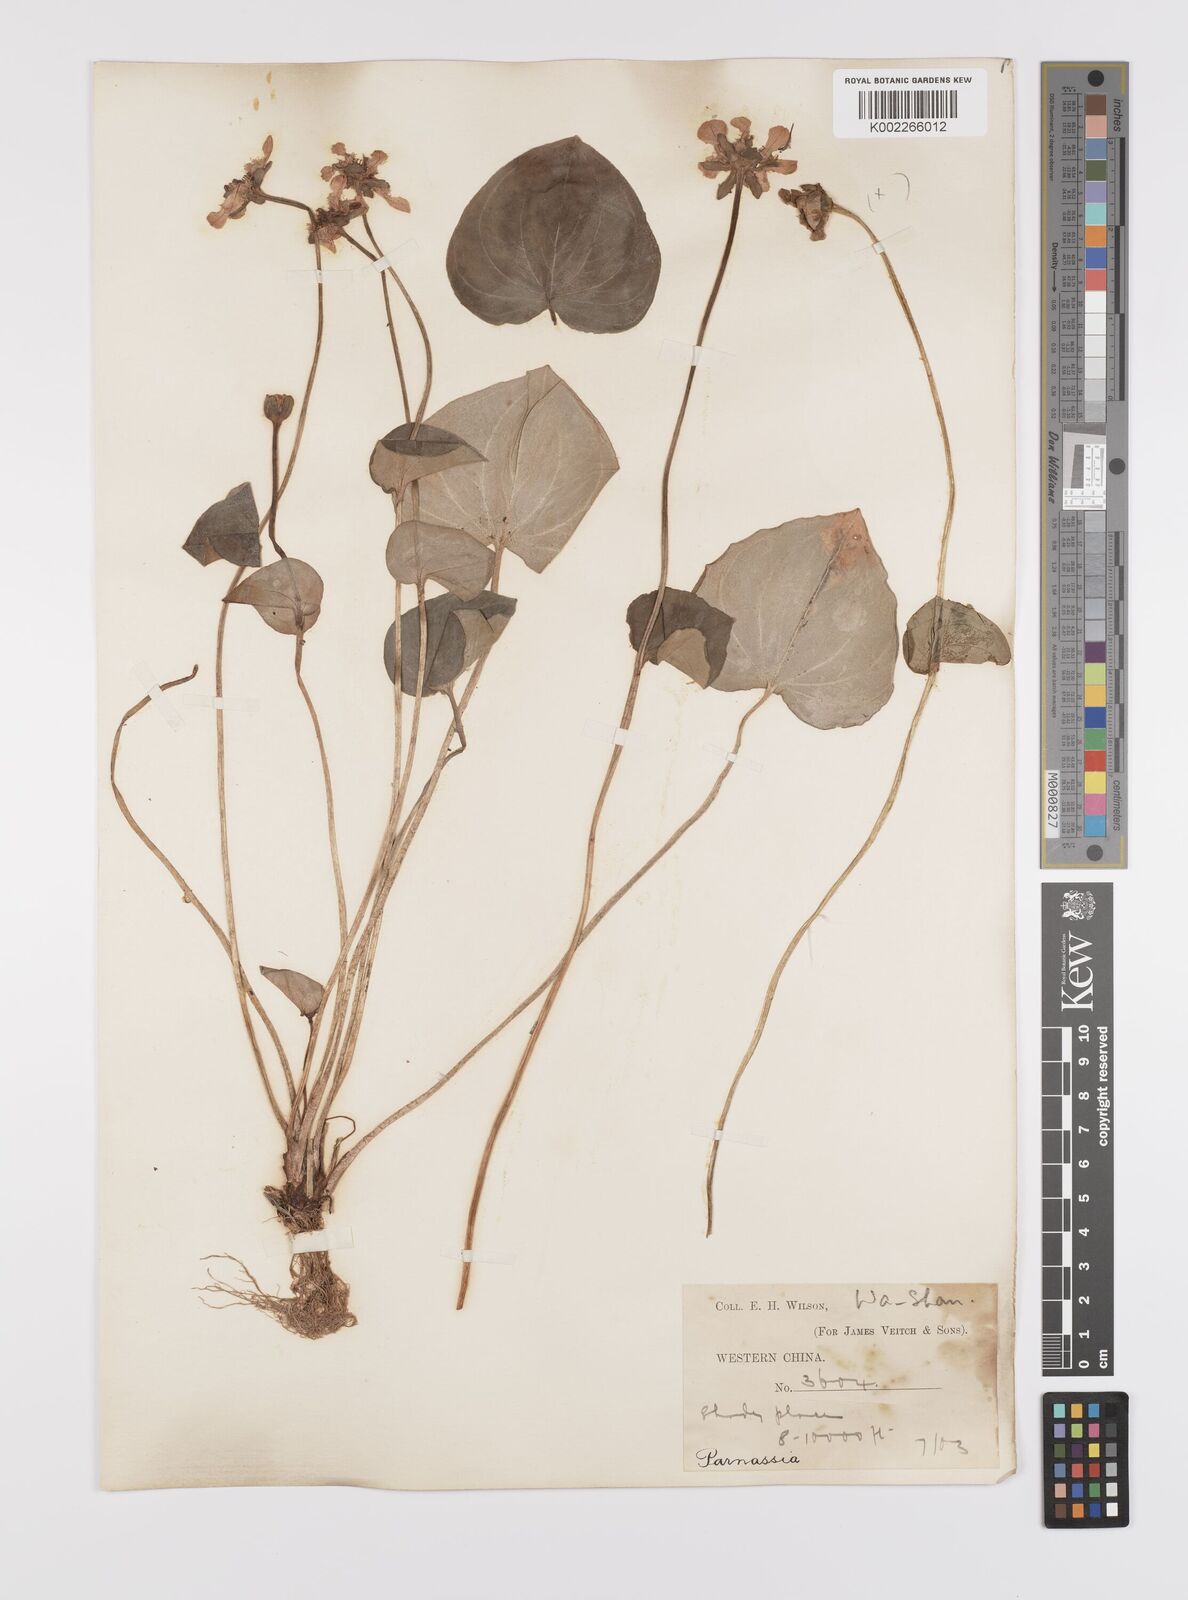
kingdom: Plantae
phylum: Tracheophyta
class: Magnoliopsida
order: Celastrales
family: Parnassiaceae
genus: Parnassia
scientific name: Parnassia wightiana
